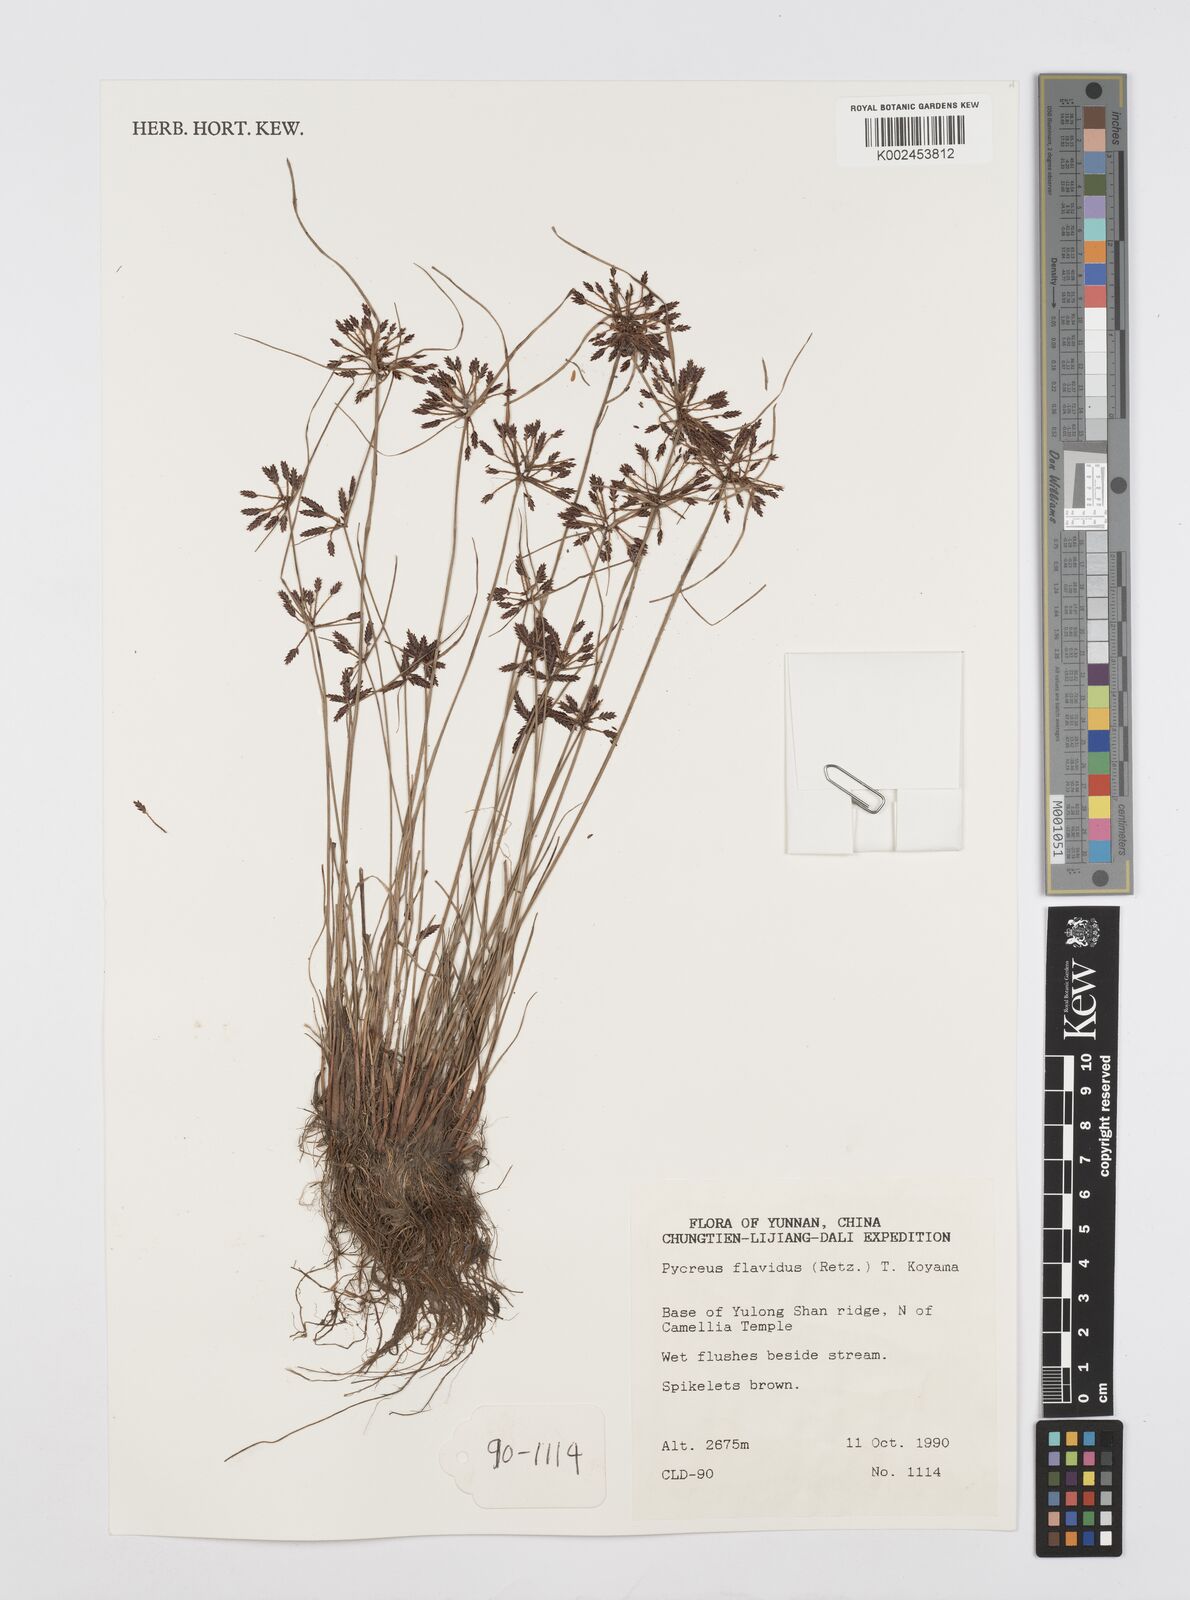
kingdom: Plantae
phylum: Tracheophyta
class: Liliopsida
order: Poales
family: Cyperaceae
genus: Cyperus
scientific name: Cyperus flavidus
